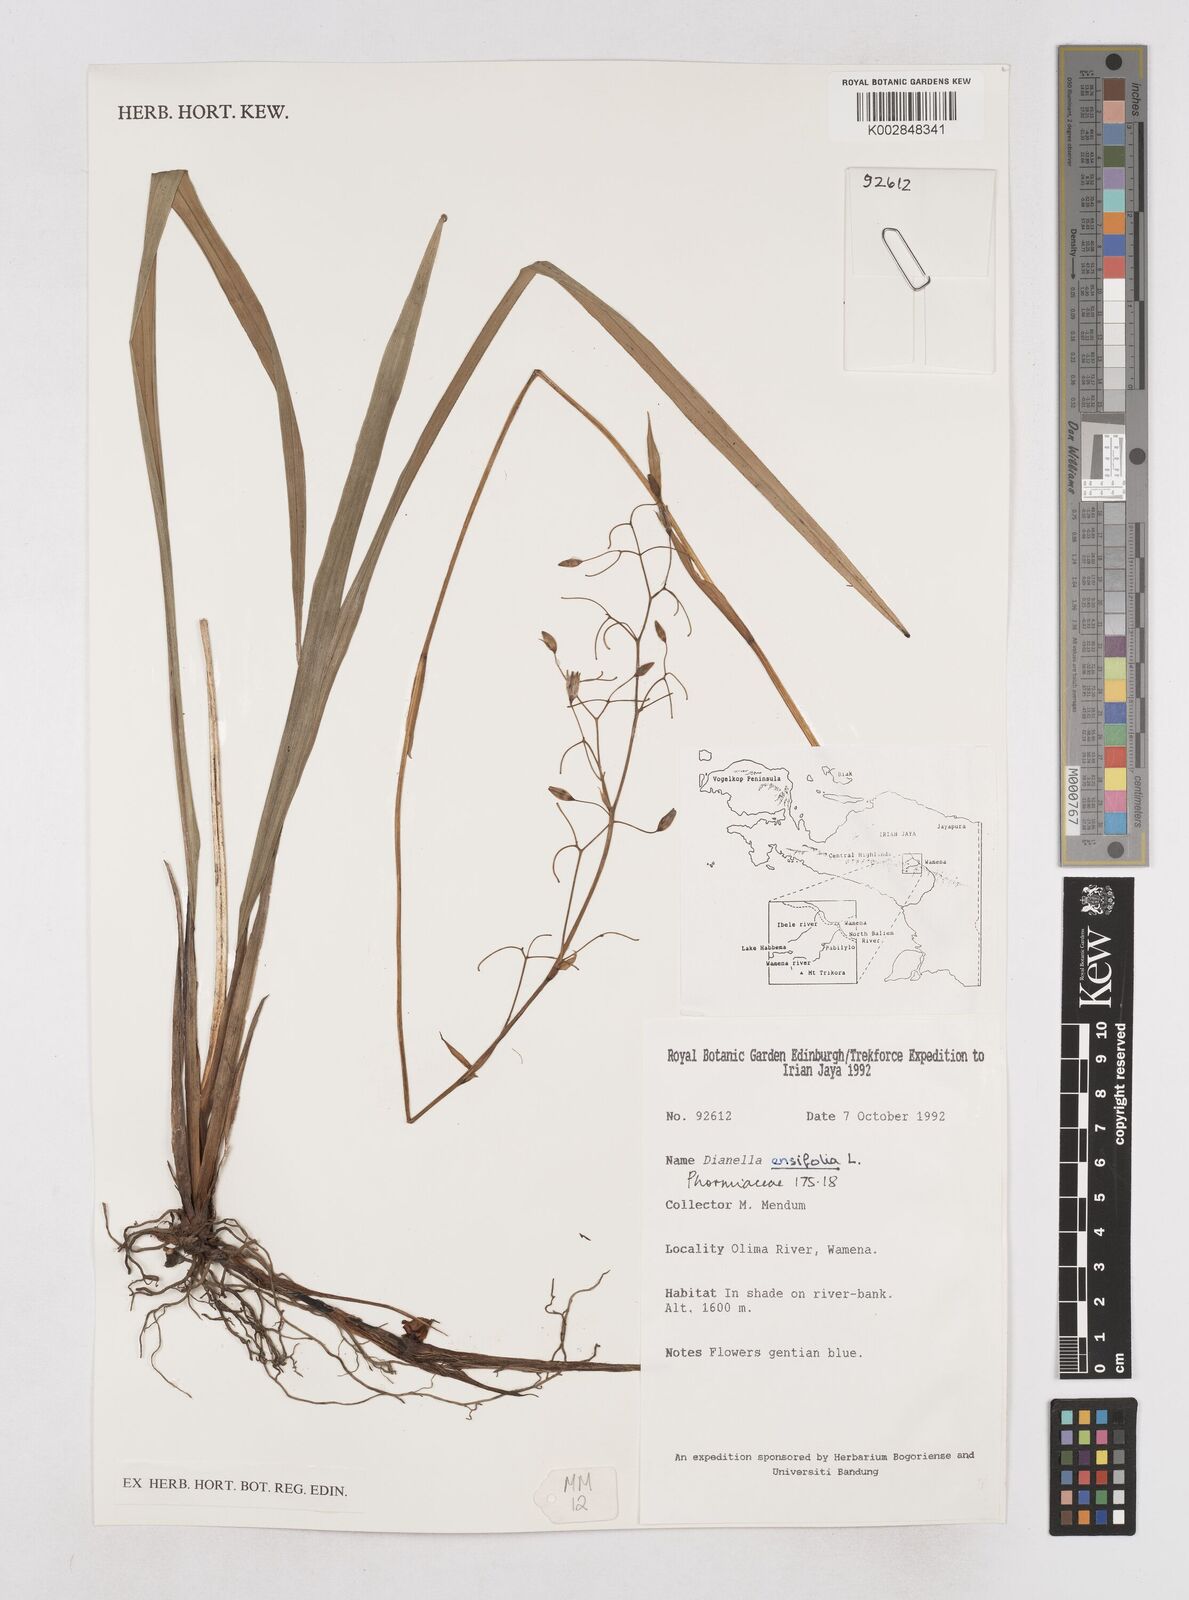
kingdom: Plantae
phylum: Tracheophyta
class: Liliopsida
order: Asparagales
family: Asphodelaceae
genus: Dianella
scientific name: Dianella ensifolia
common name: New zealand lilyplant
